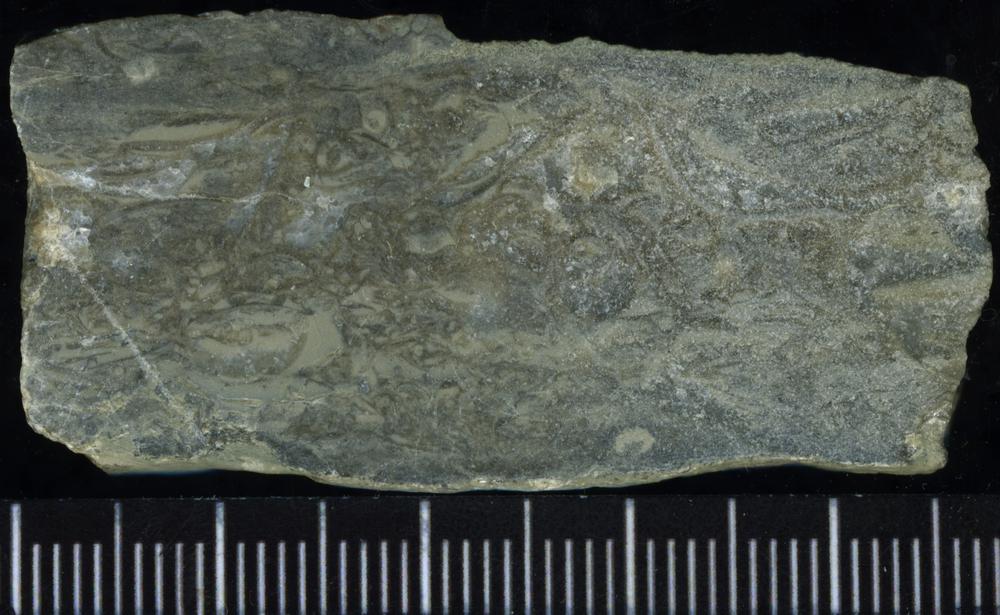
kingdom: Plantae
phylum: Tracheophyta
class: Pinopsida
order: Pinales
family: Cupressaceae
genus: Platycladus
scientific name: Platycladus
